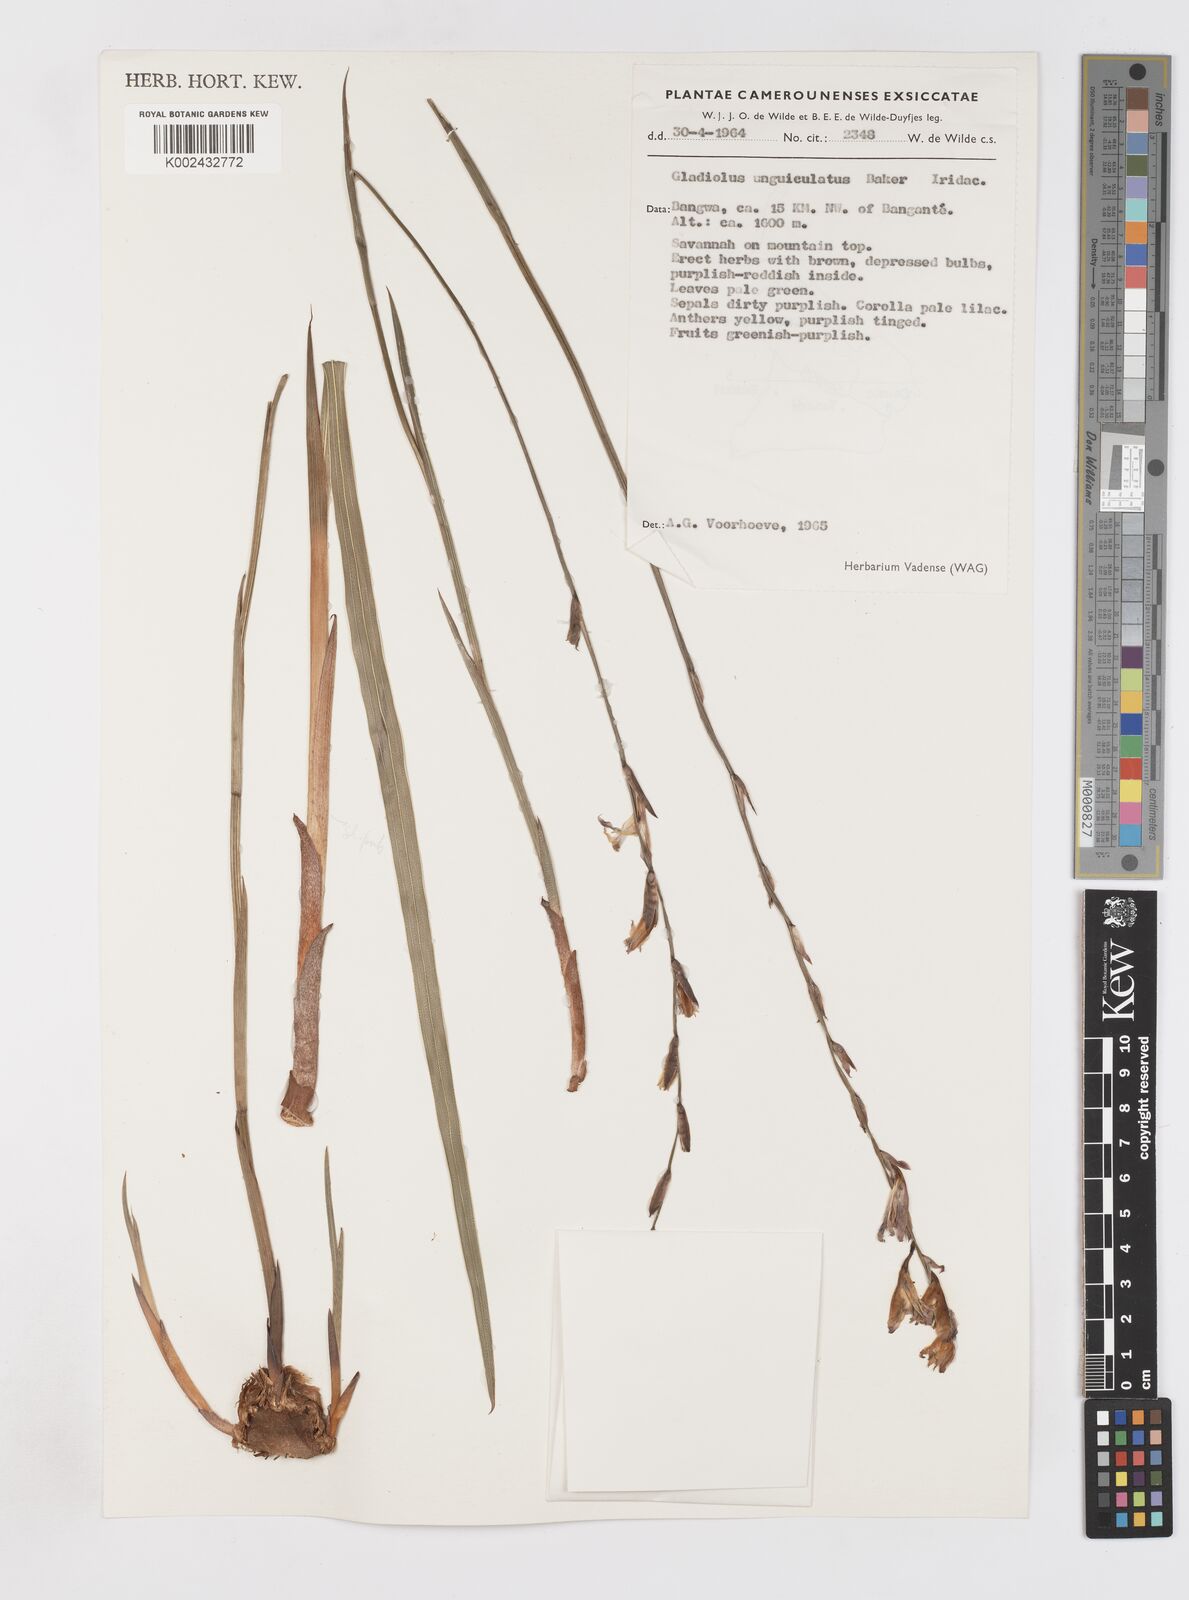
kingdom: Plantae
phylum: Tracheophyta
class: Liliopsida
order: Asparagales
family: Iridaceae
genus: Gladiolus
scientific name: Gladiolus unguiculatus
